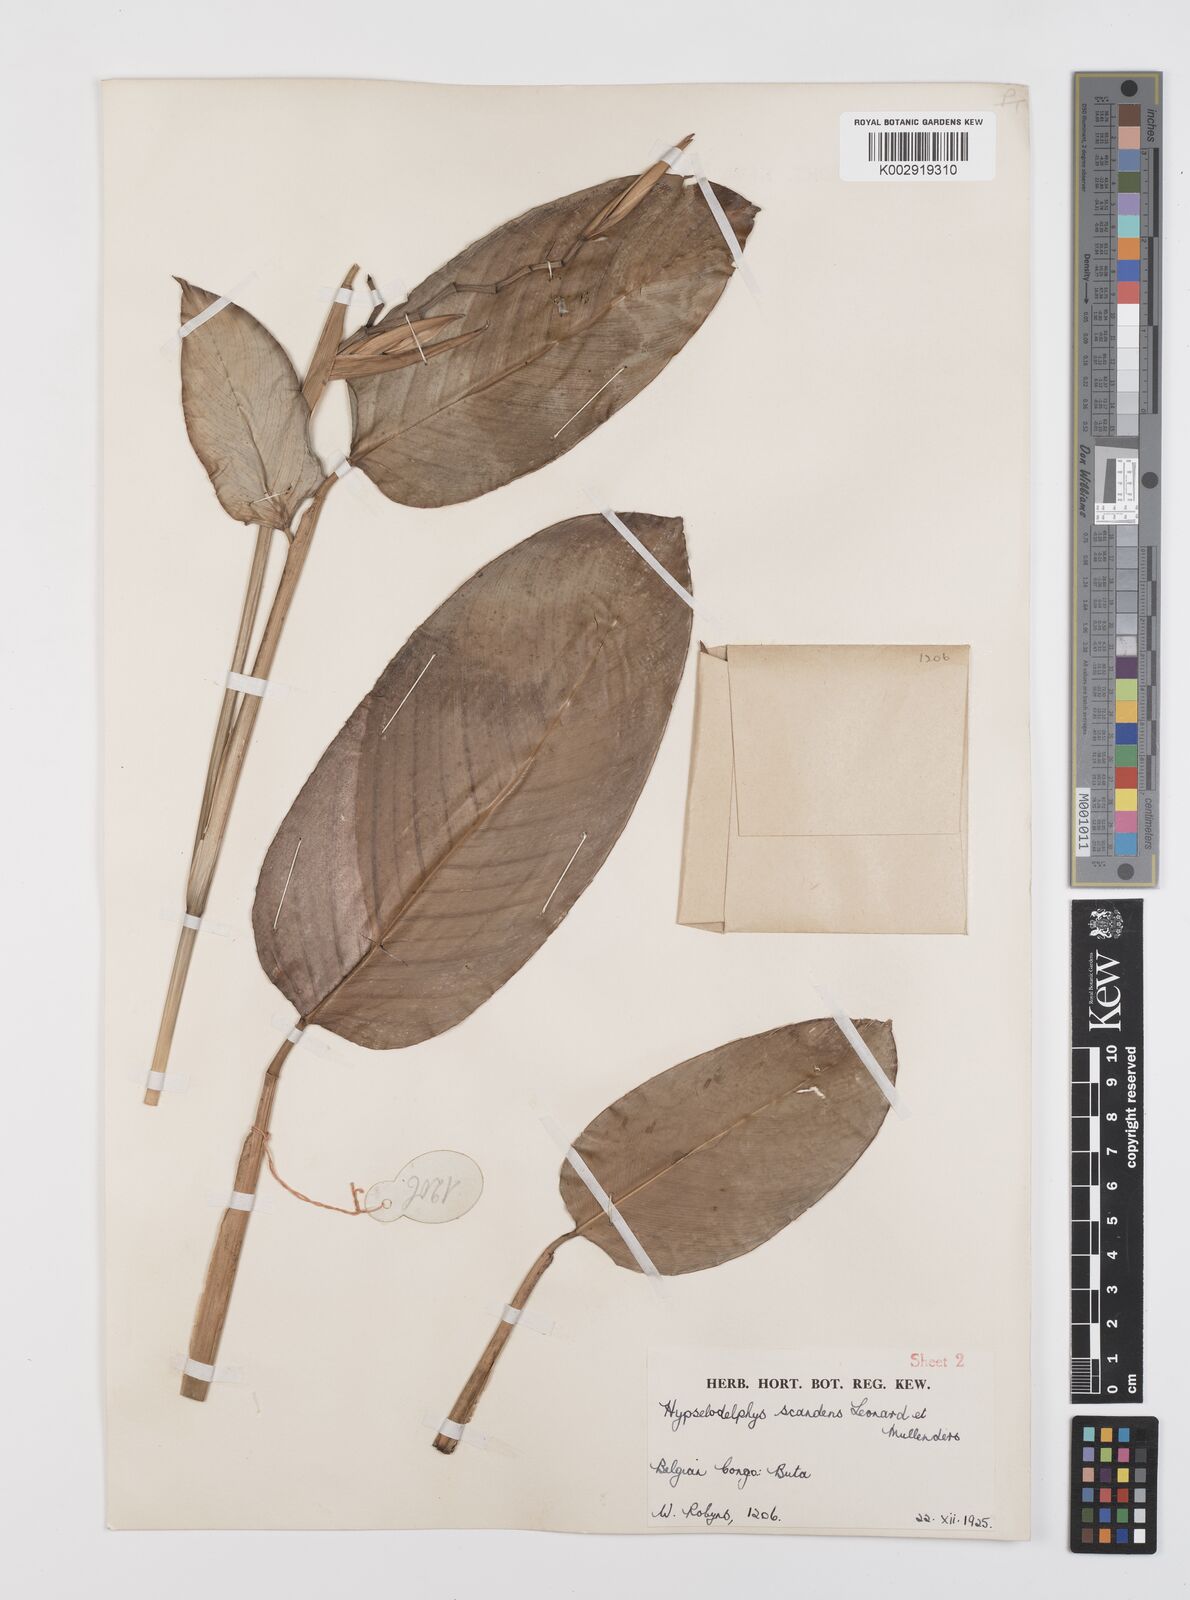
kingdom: Plantae
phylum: Tracheophyta
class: Liliopsida
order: Zingiberales
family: Marantaceae
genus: Hypselodelphys
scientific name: Hypselodelphys scandens
